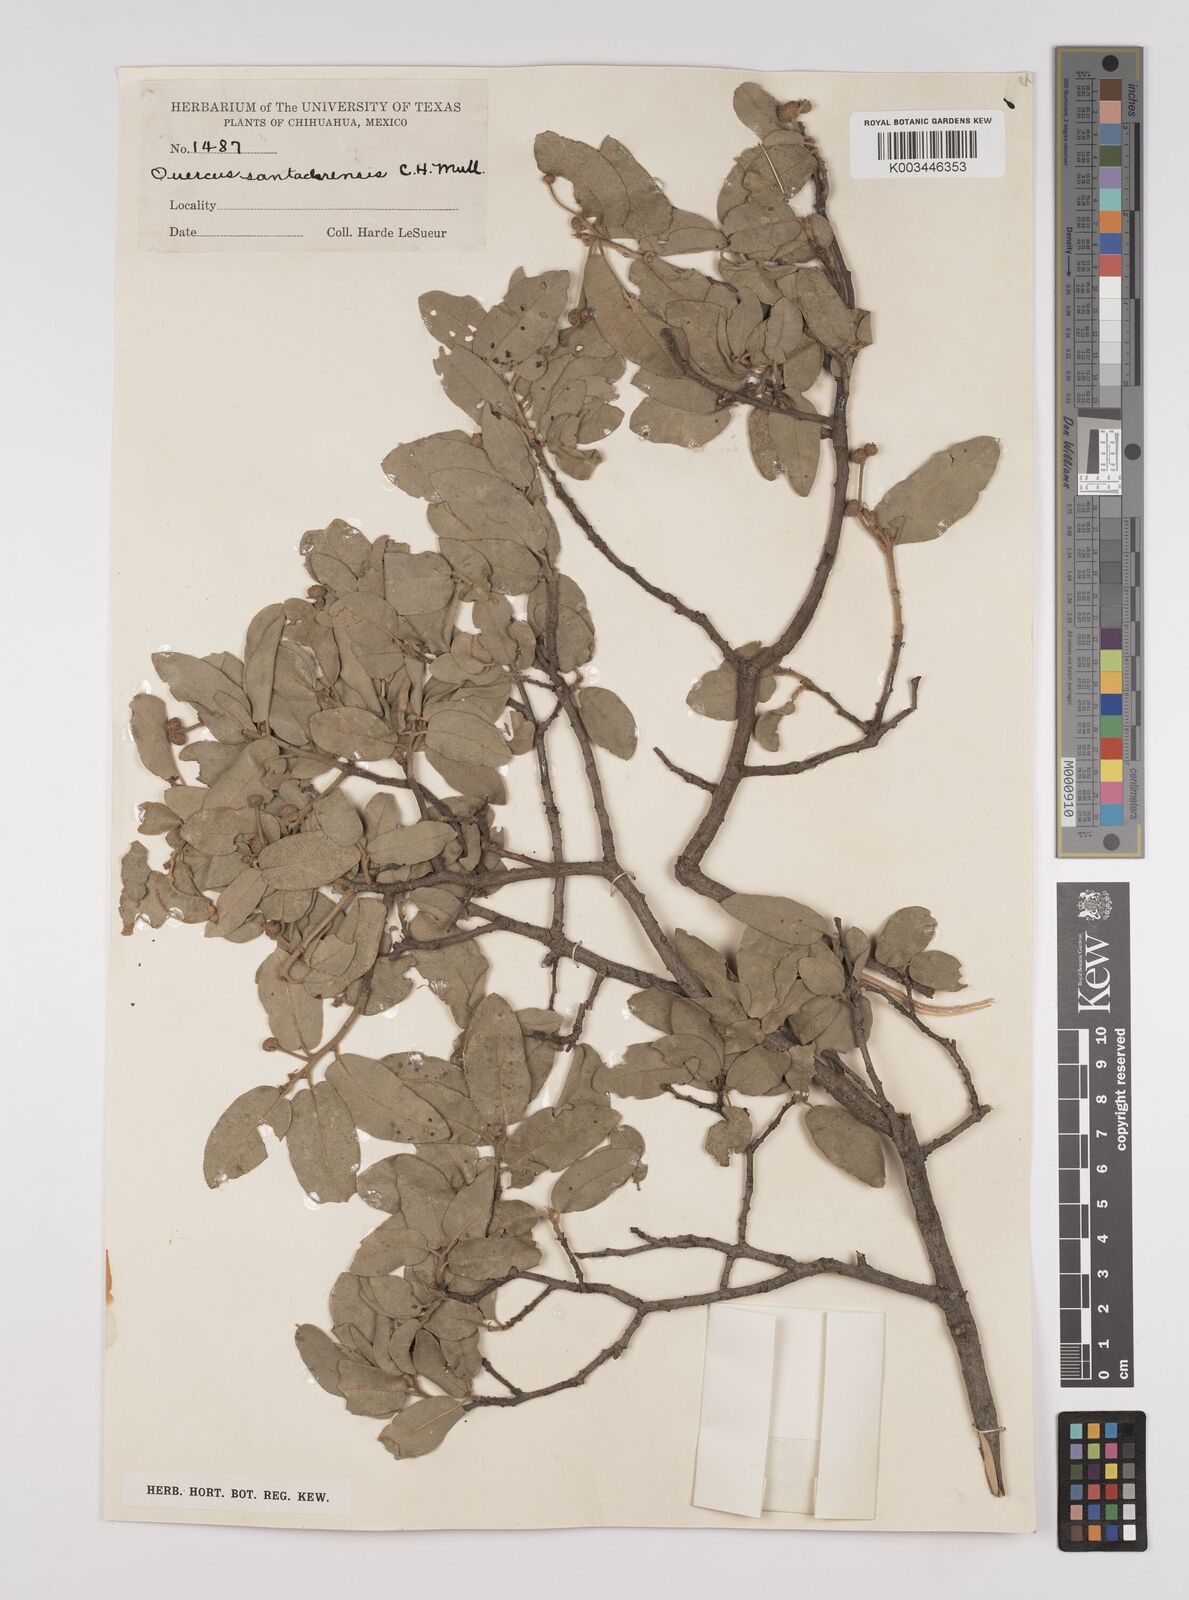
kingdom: Plantae
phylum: Tracheophyta
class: Magnoliopsida
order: Fagales
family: Fagaceae
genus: Quercus
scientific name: Quercus chihuahuensis
